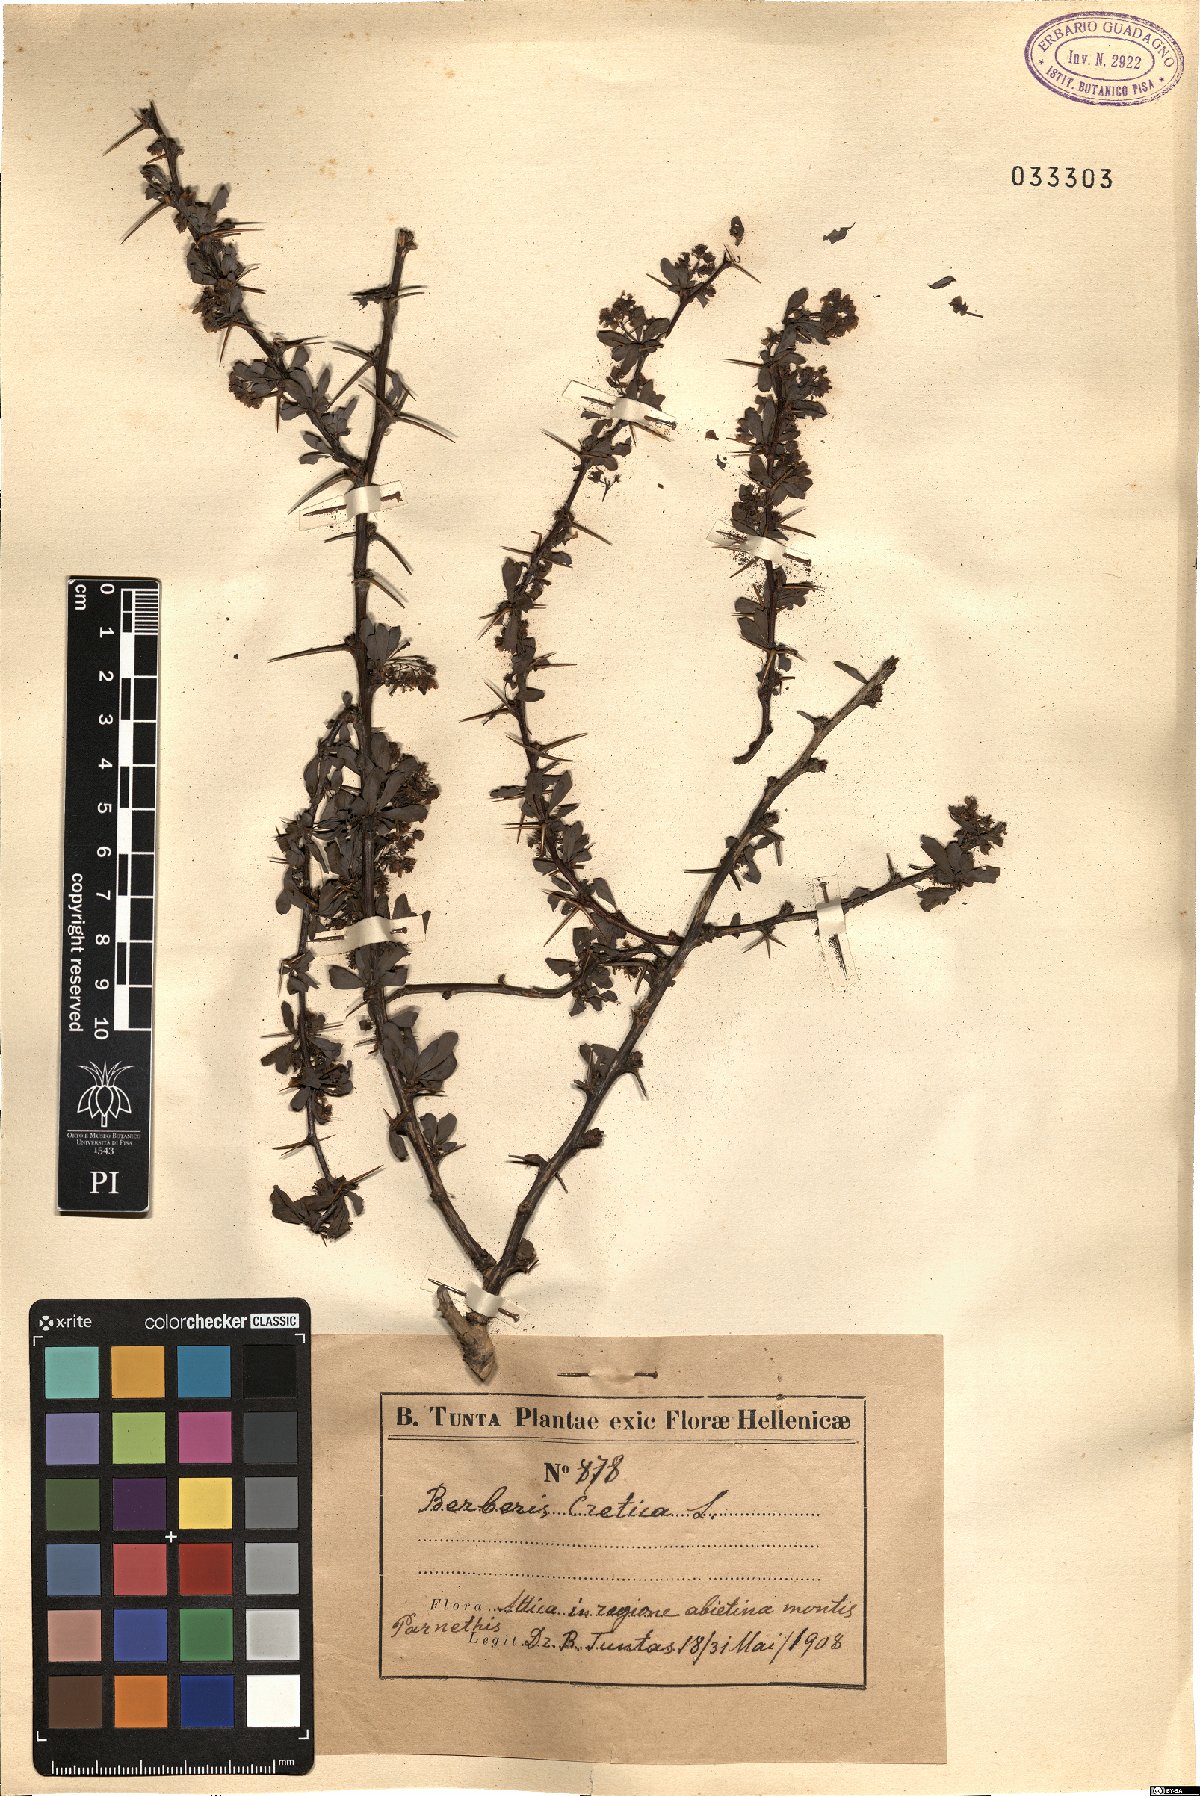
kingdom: Plantae
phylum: Tracheophyta
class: Magnoliopsida
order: Ranunculales
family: Berberidaceae
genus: Berberis
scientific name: Berberis cretica
